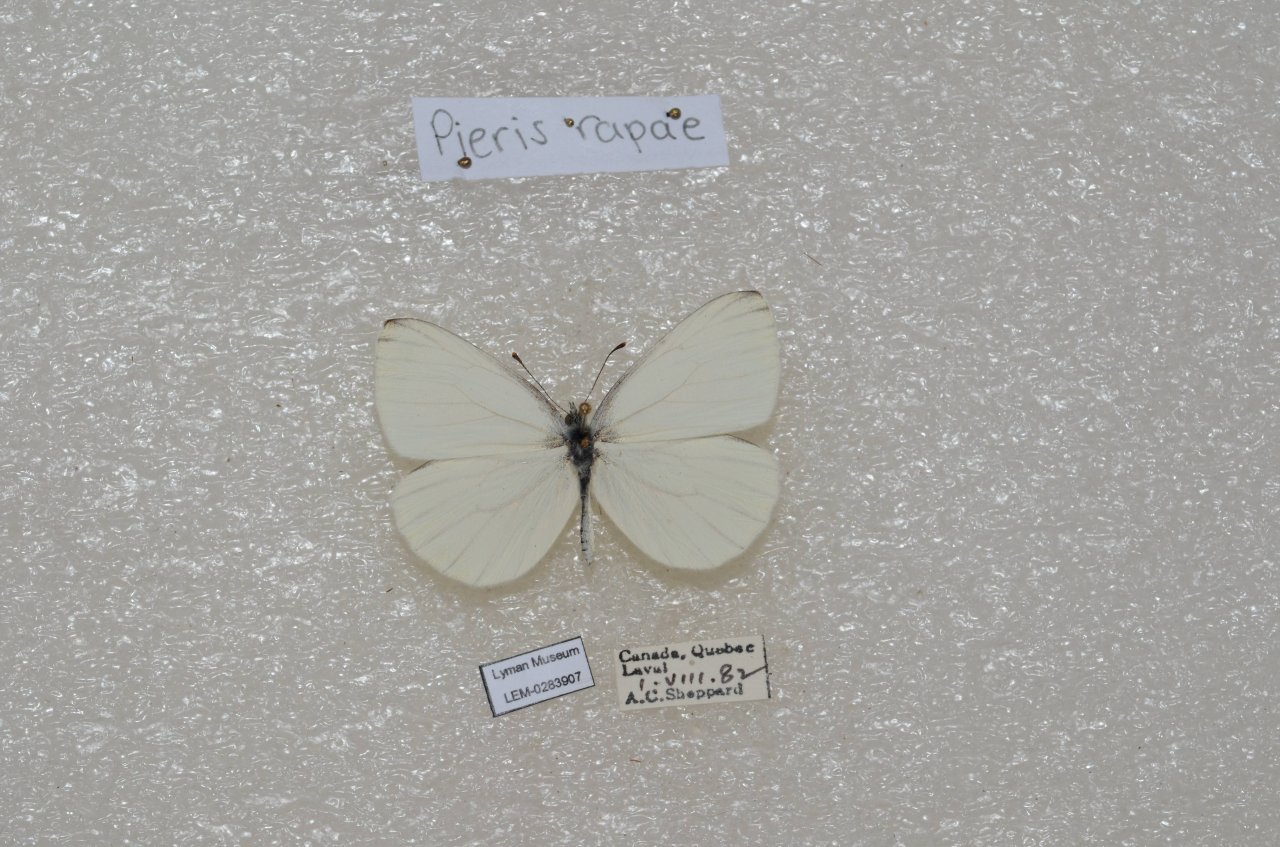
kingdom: Animalia
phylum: Arthropoda
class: Insecta
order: Lepidoptera
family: Pieridae
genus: Pieris
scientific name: Pieris oleracea
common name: Mustard White
